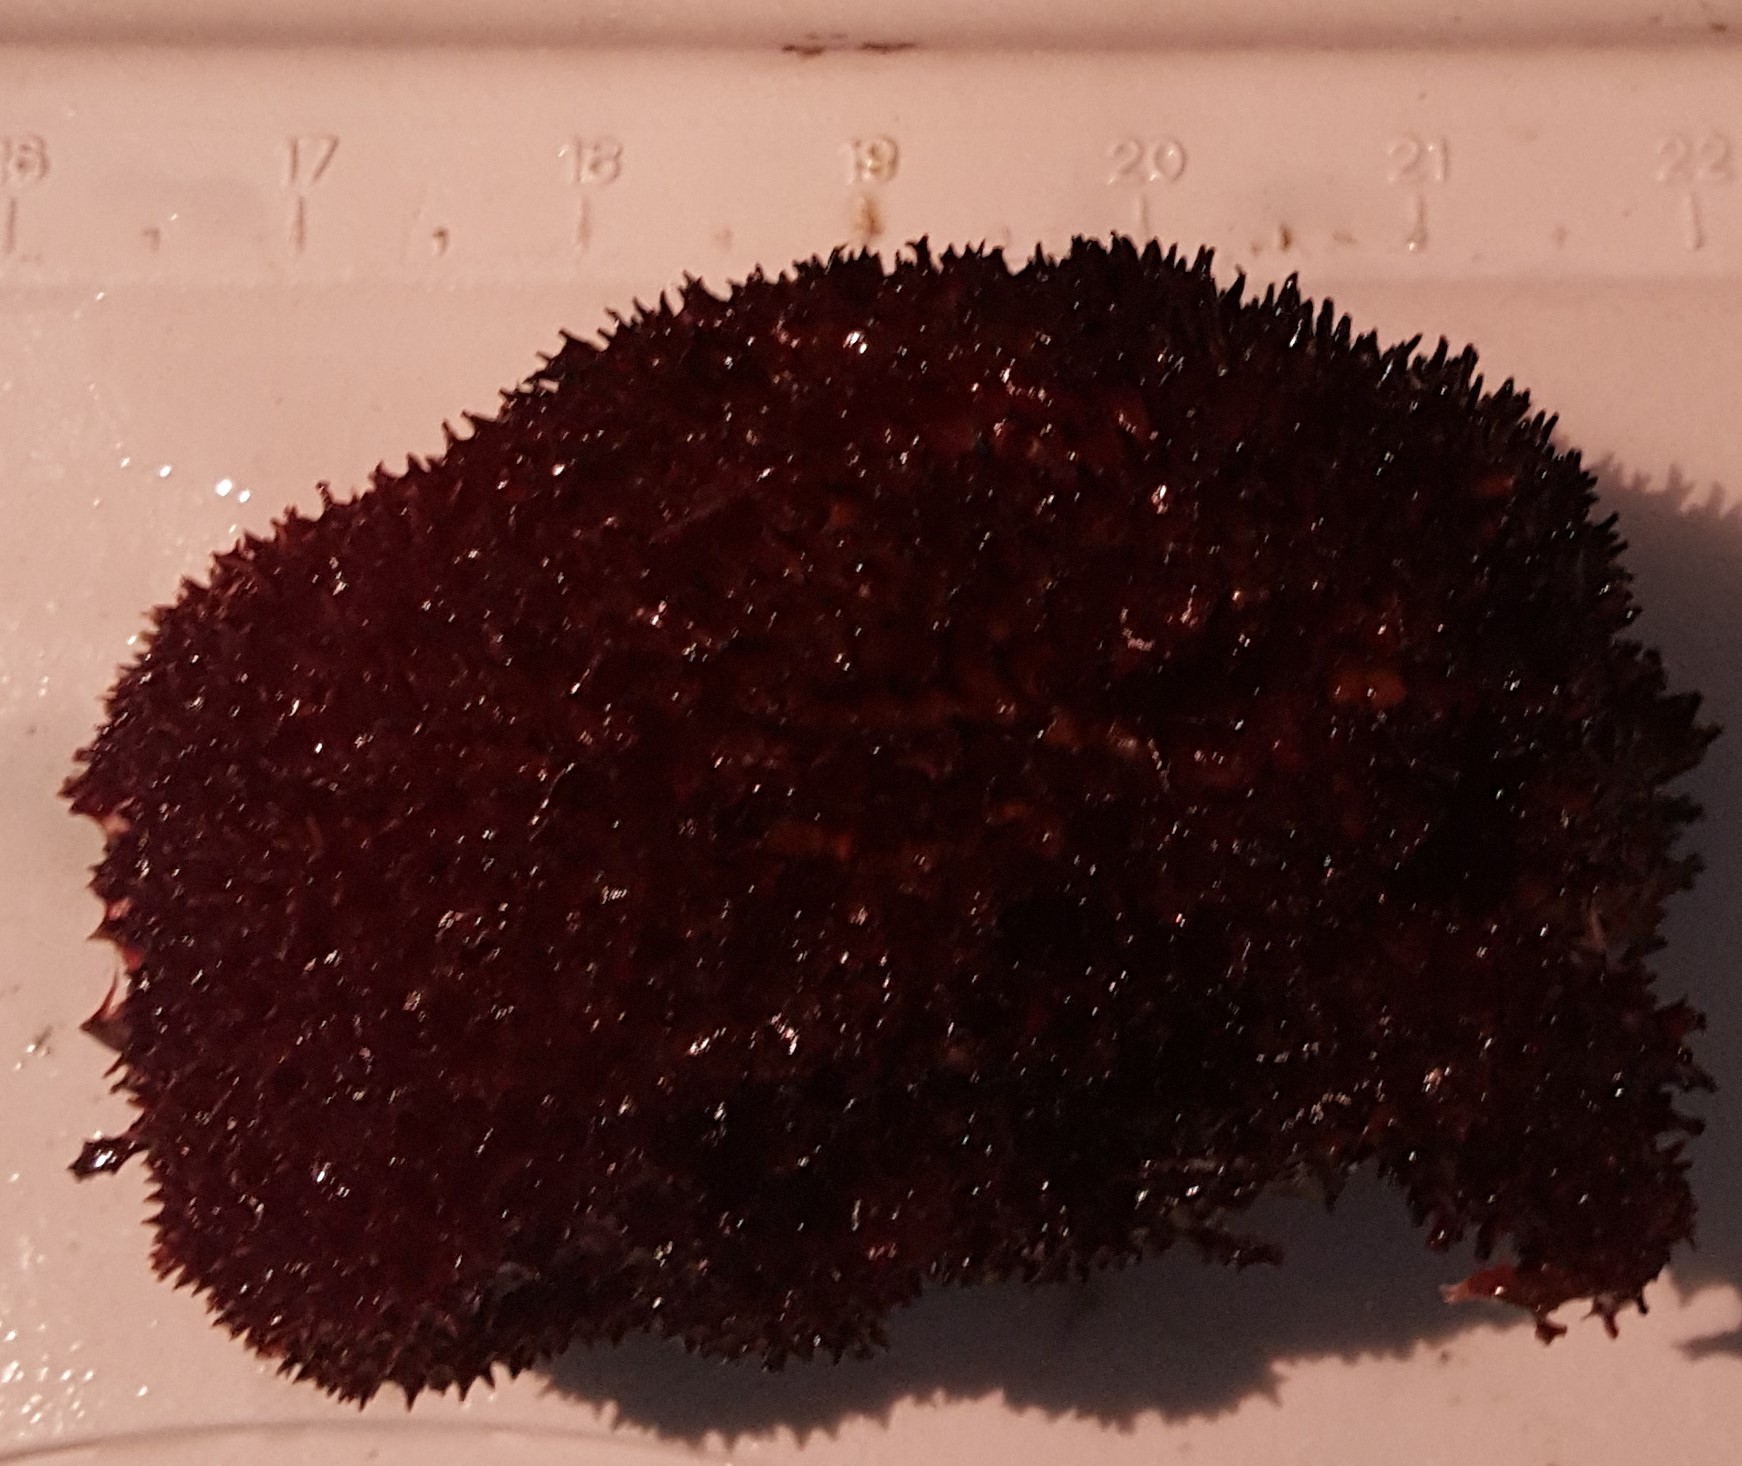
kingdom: Animalia
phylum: Porifera
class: Demospongiae
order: Poecilosclerida
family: Mycalidae
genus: Mycale
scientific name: Mycale laxissima
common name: Strawberry vase sponge
